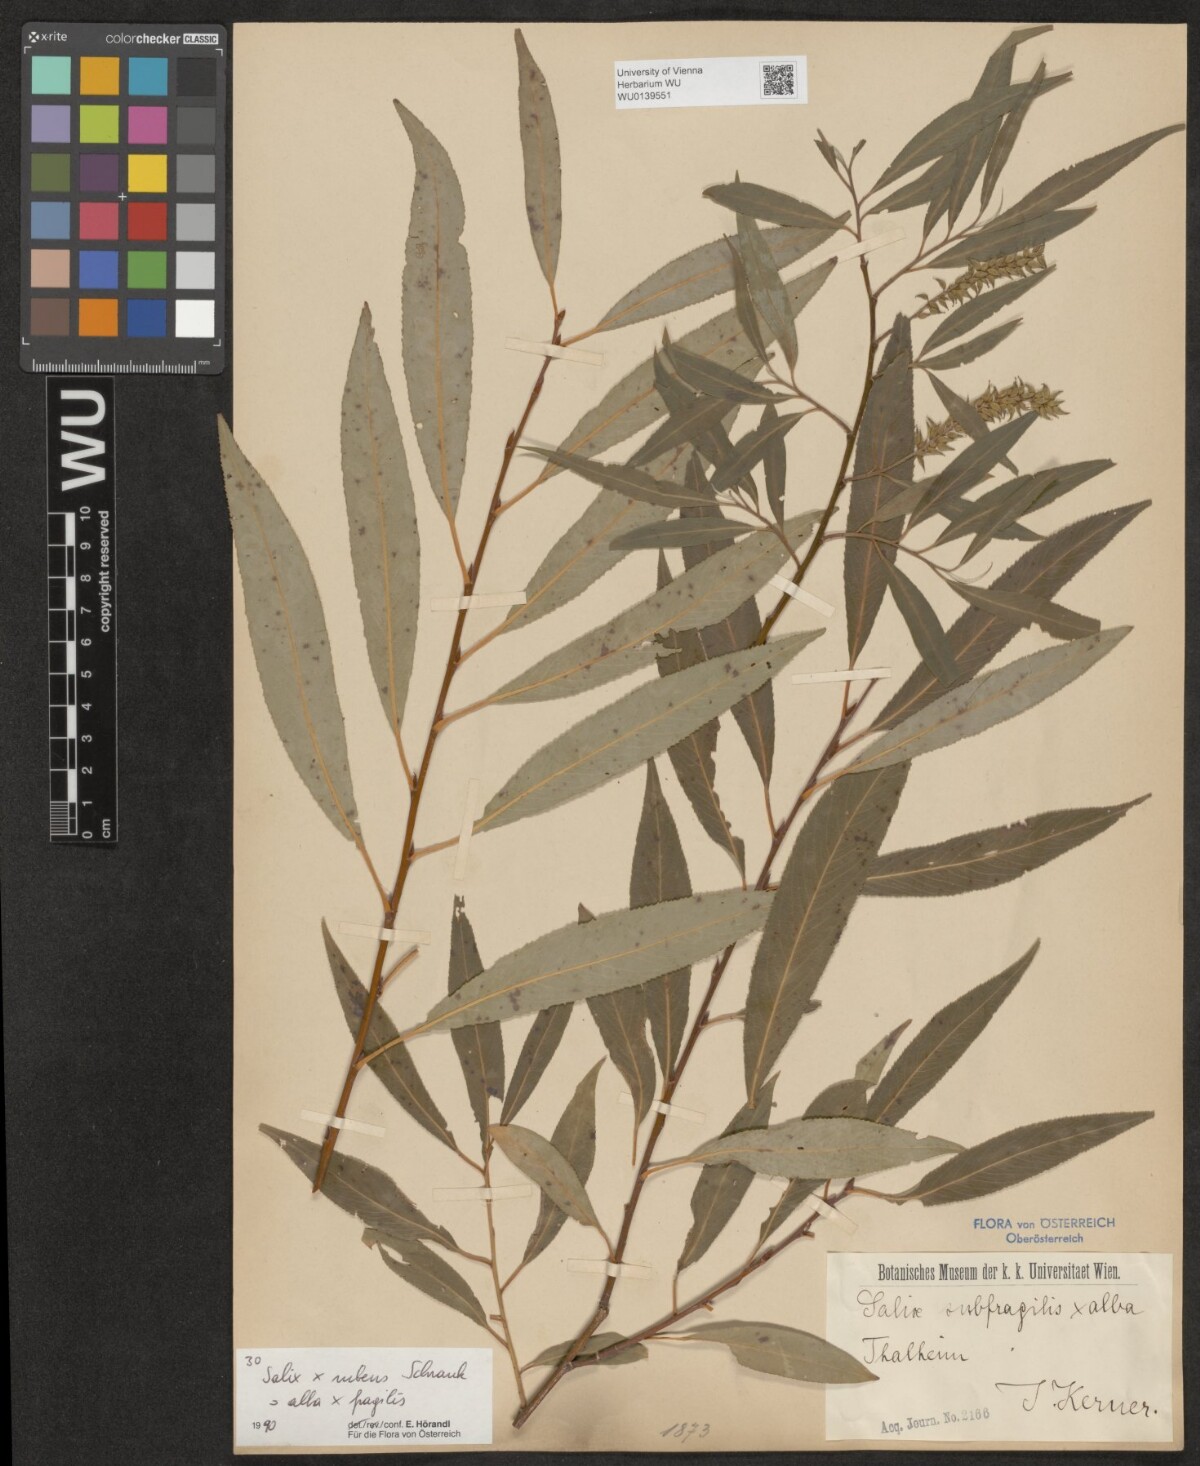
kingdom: Plantae
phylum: Tracheophyta
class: Magnoliopsida
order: Malpighiales
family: Salicaceae
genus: Salix
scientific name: Salix rubens
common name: Hybrid crack willow
